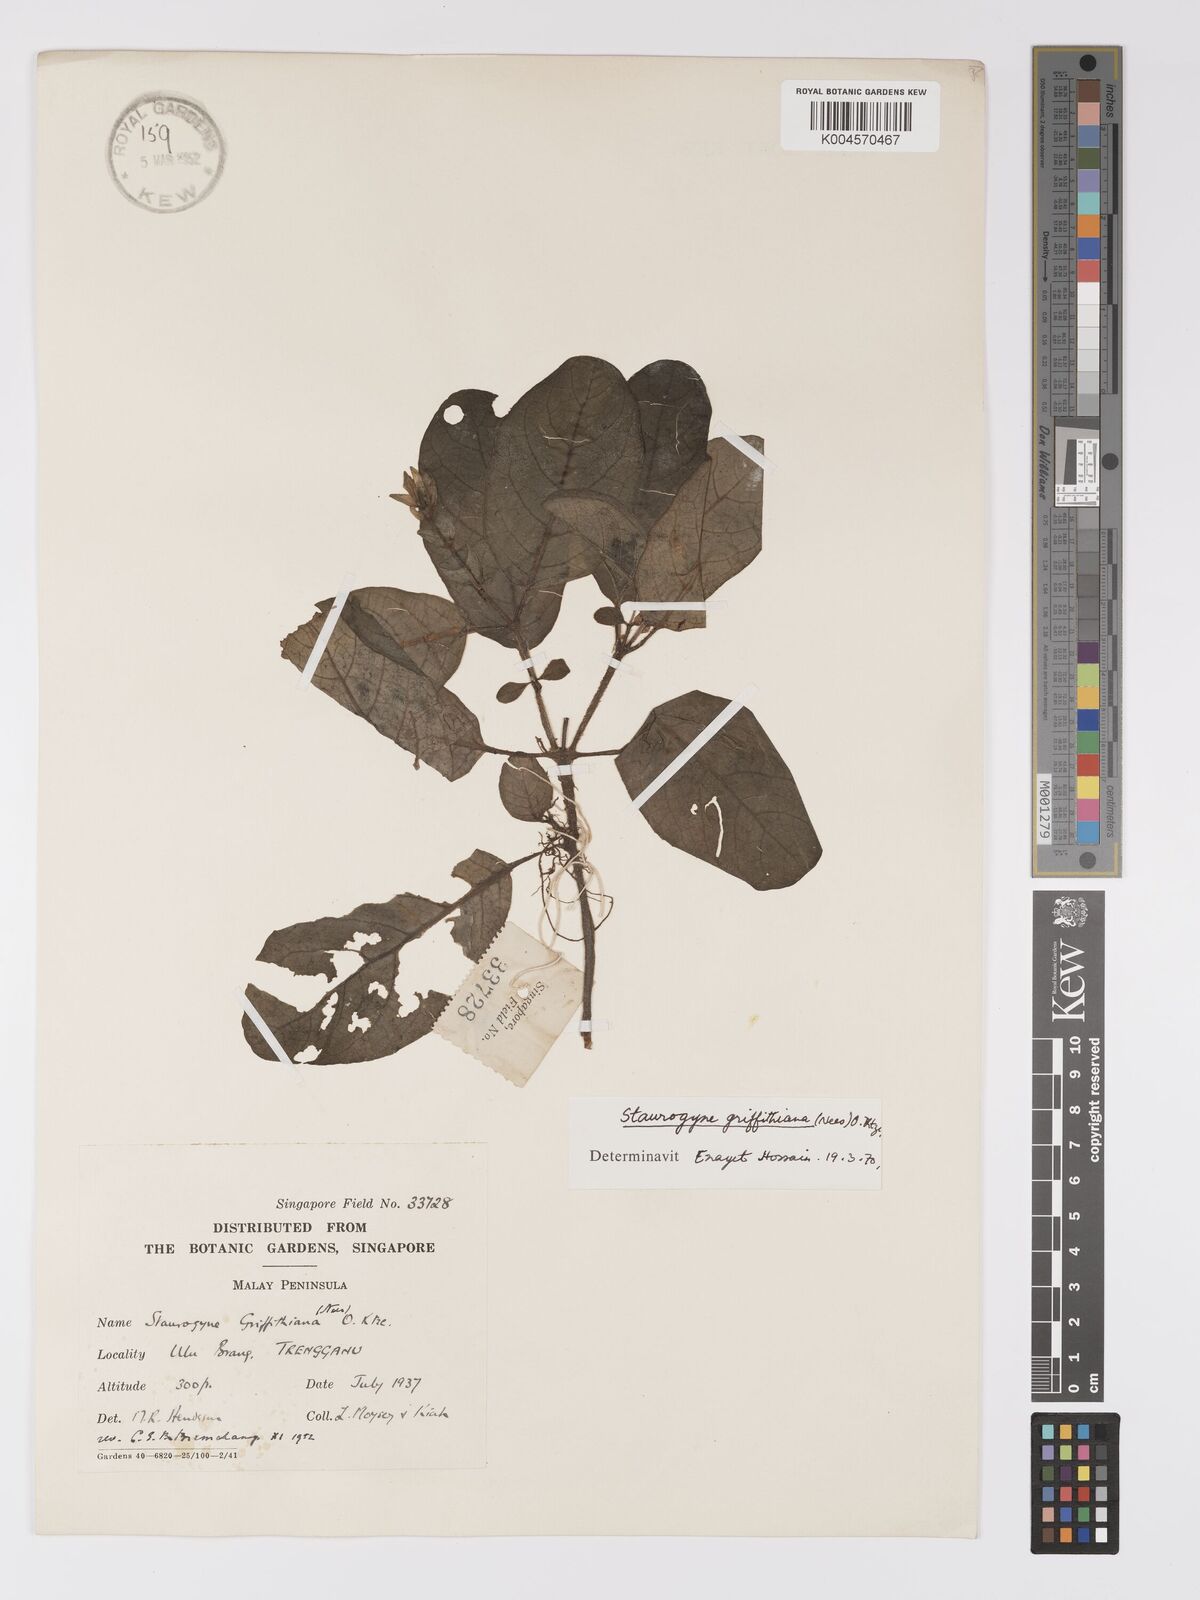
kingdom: Plantae
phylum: Tracheophyta
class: Magnoliopsida
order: Lamiales
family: Acanthaceae
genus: Staurogyne
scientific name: Staurogyne griffithiana
